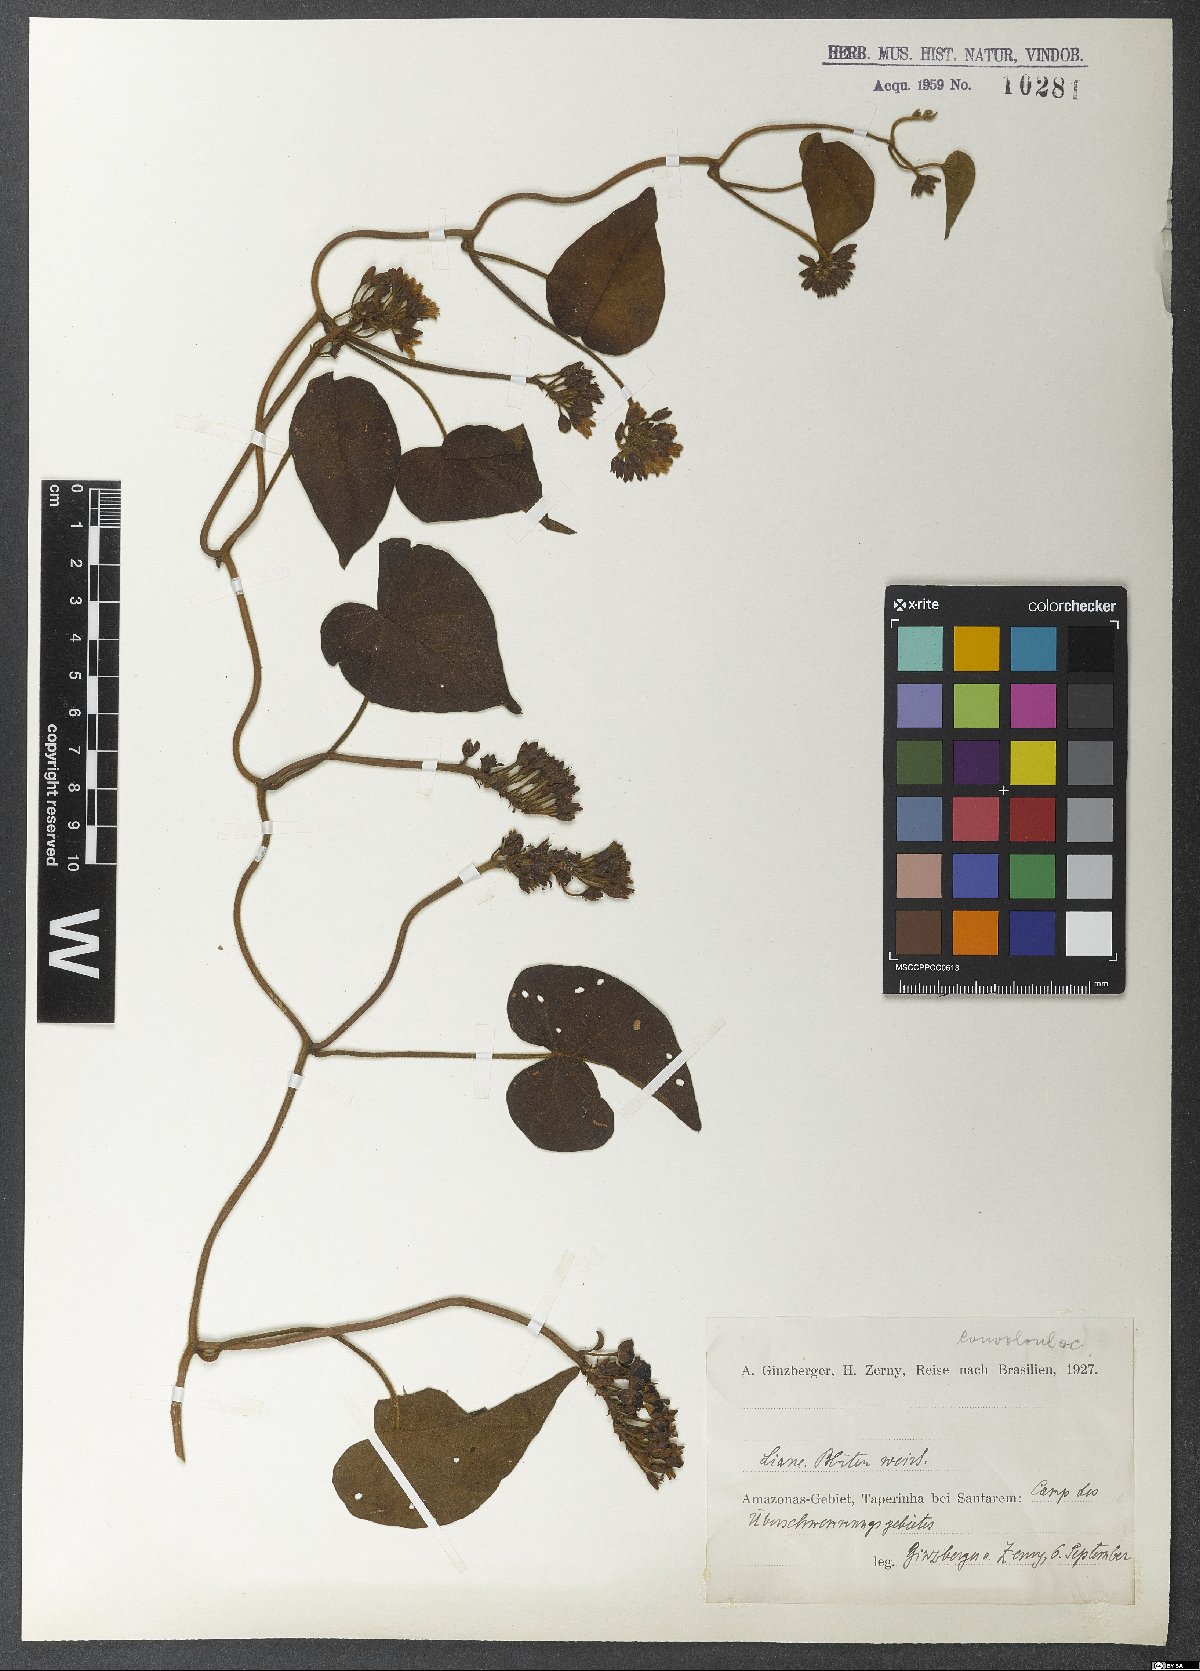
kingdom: Plantae
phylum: Tracheophyta
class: Magnoliopsida
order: Solanales
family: Convolvulaceae
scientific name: Convolvulaceae
